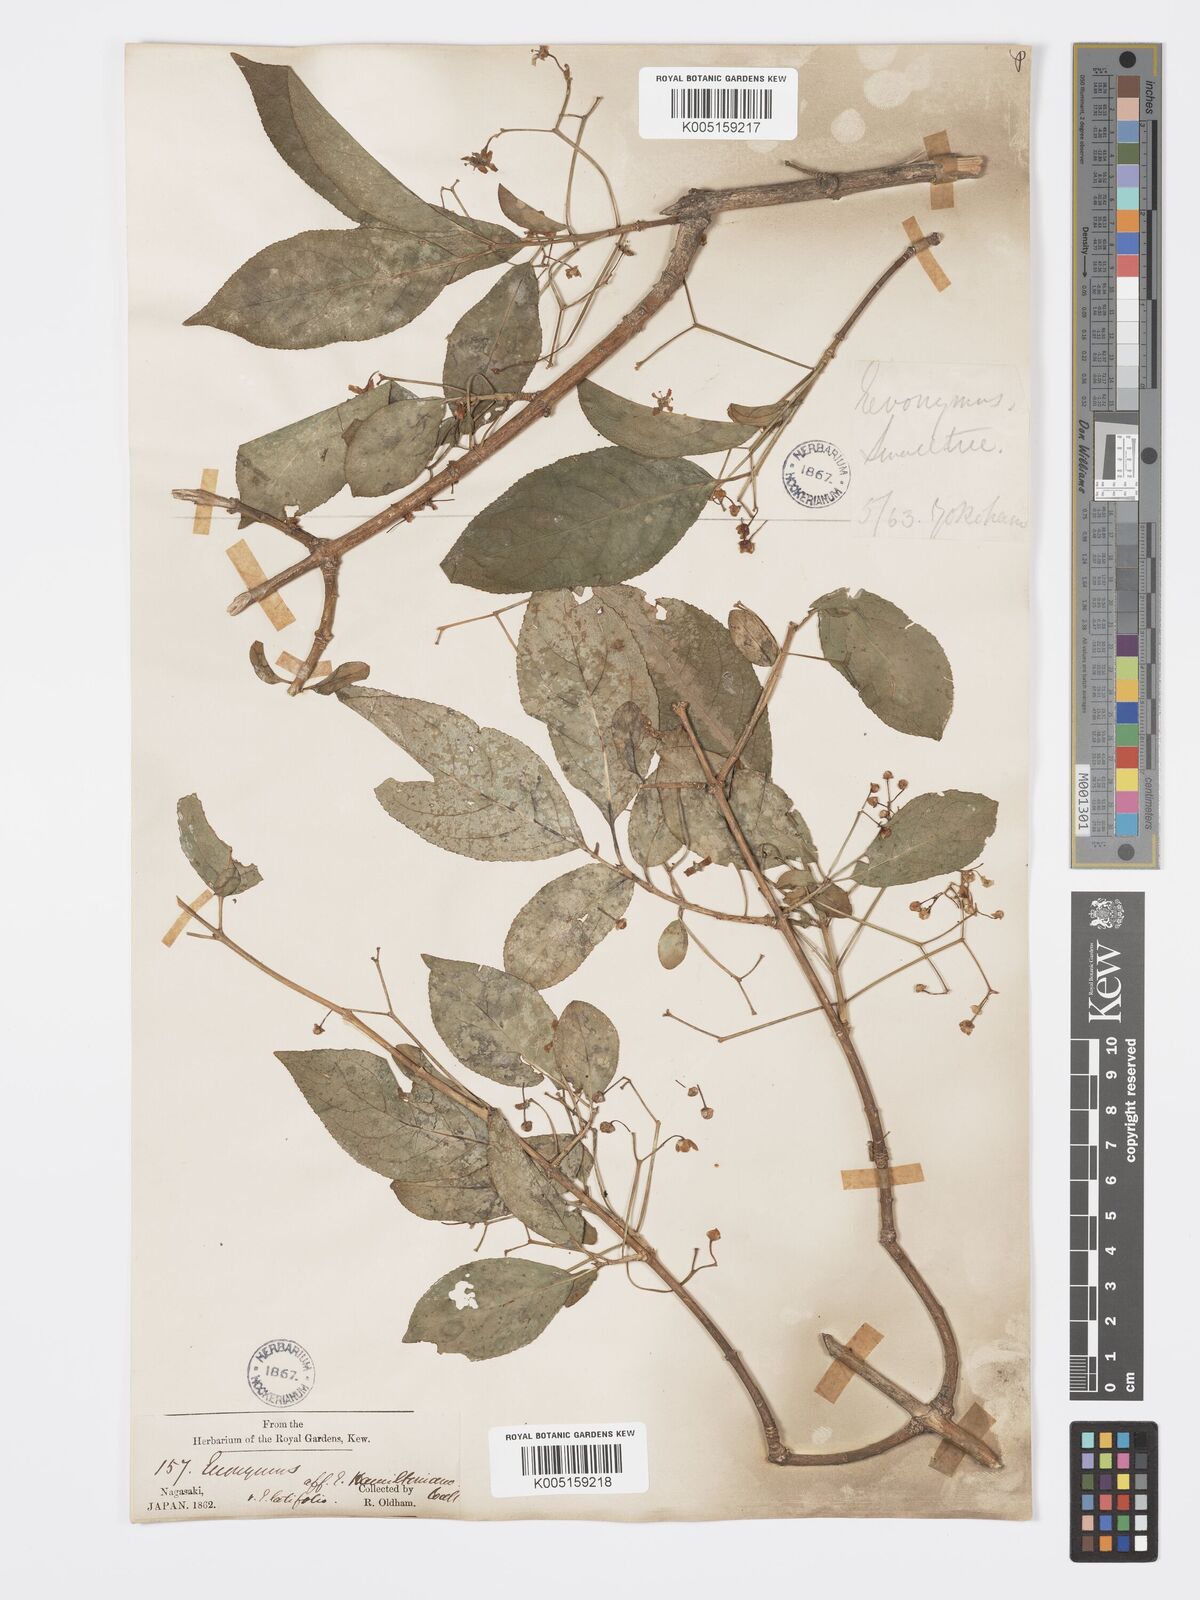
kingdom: Plantae
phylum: Tracheophyta
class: Magnoliopsida
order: Celastrales
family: Celastraceae
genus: Euonymus
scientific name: Euonymus hamiltonianus
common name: Hamilton's spindletree
